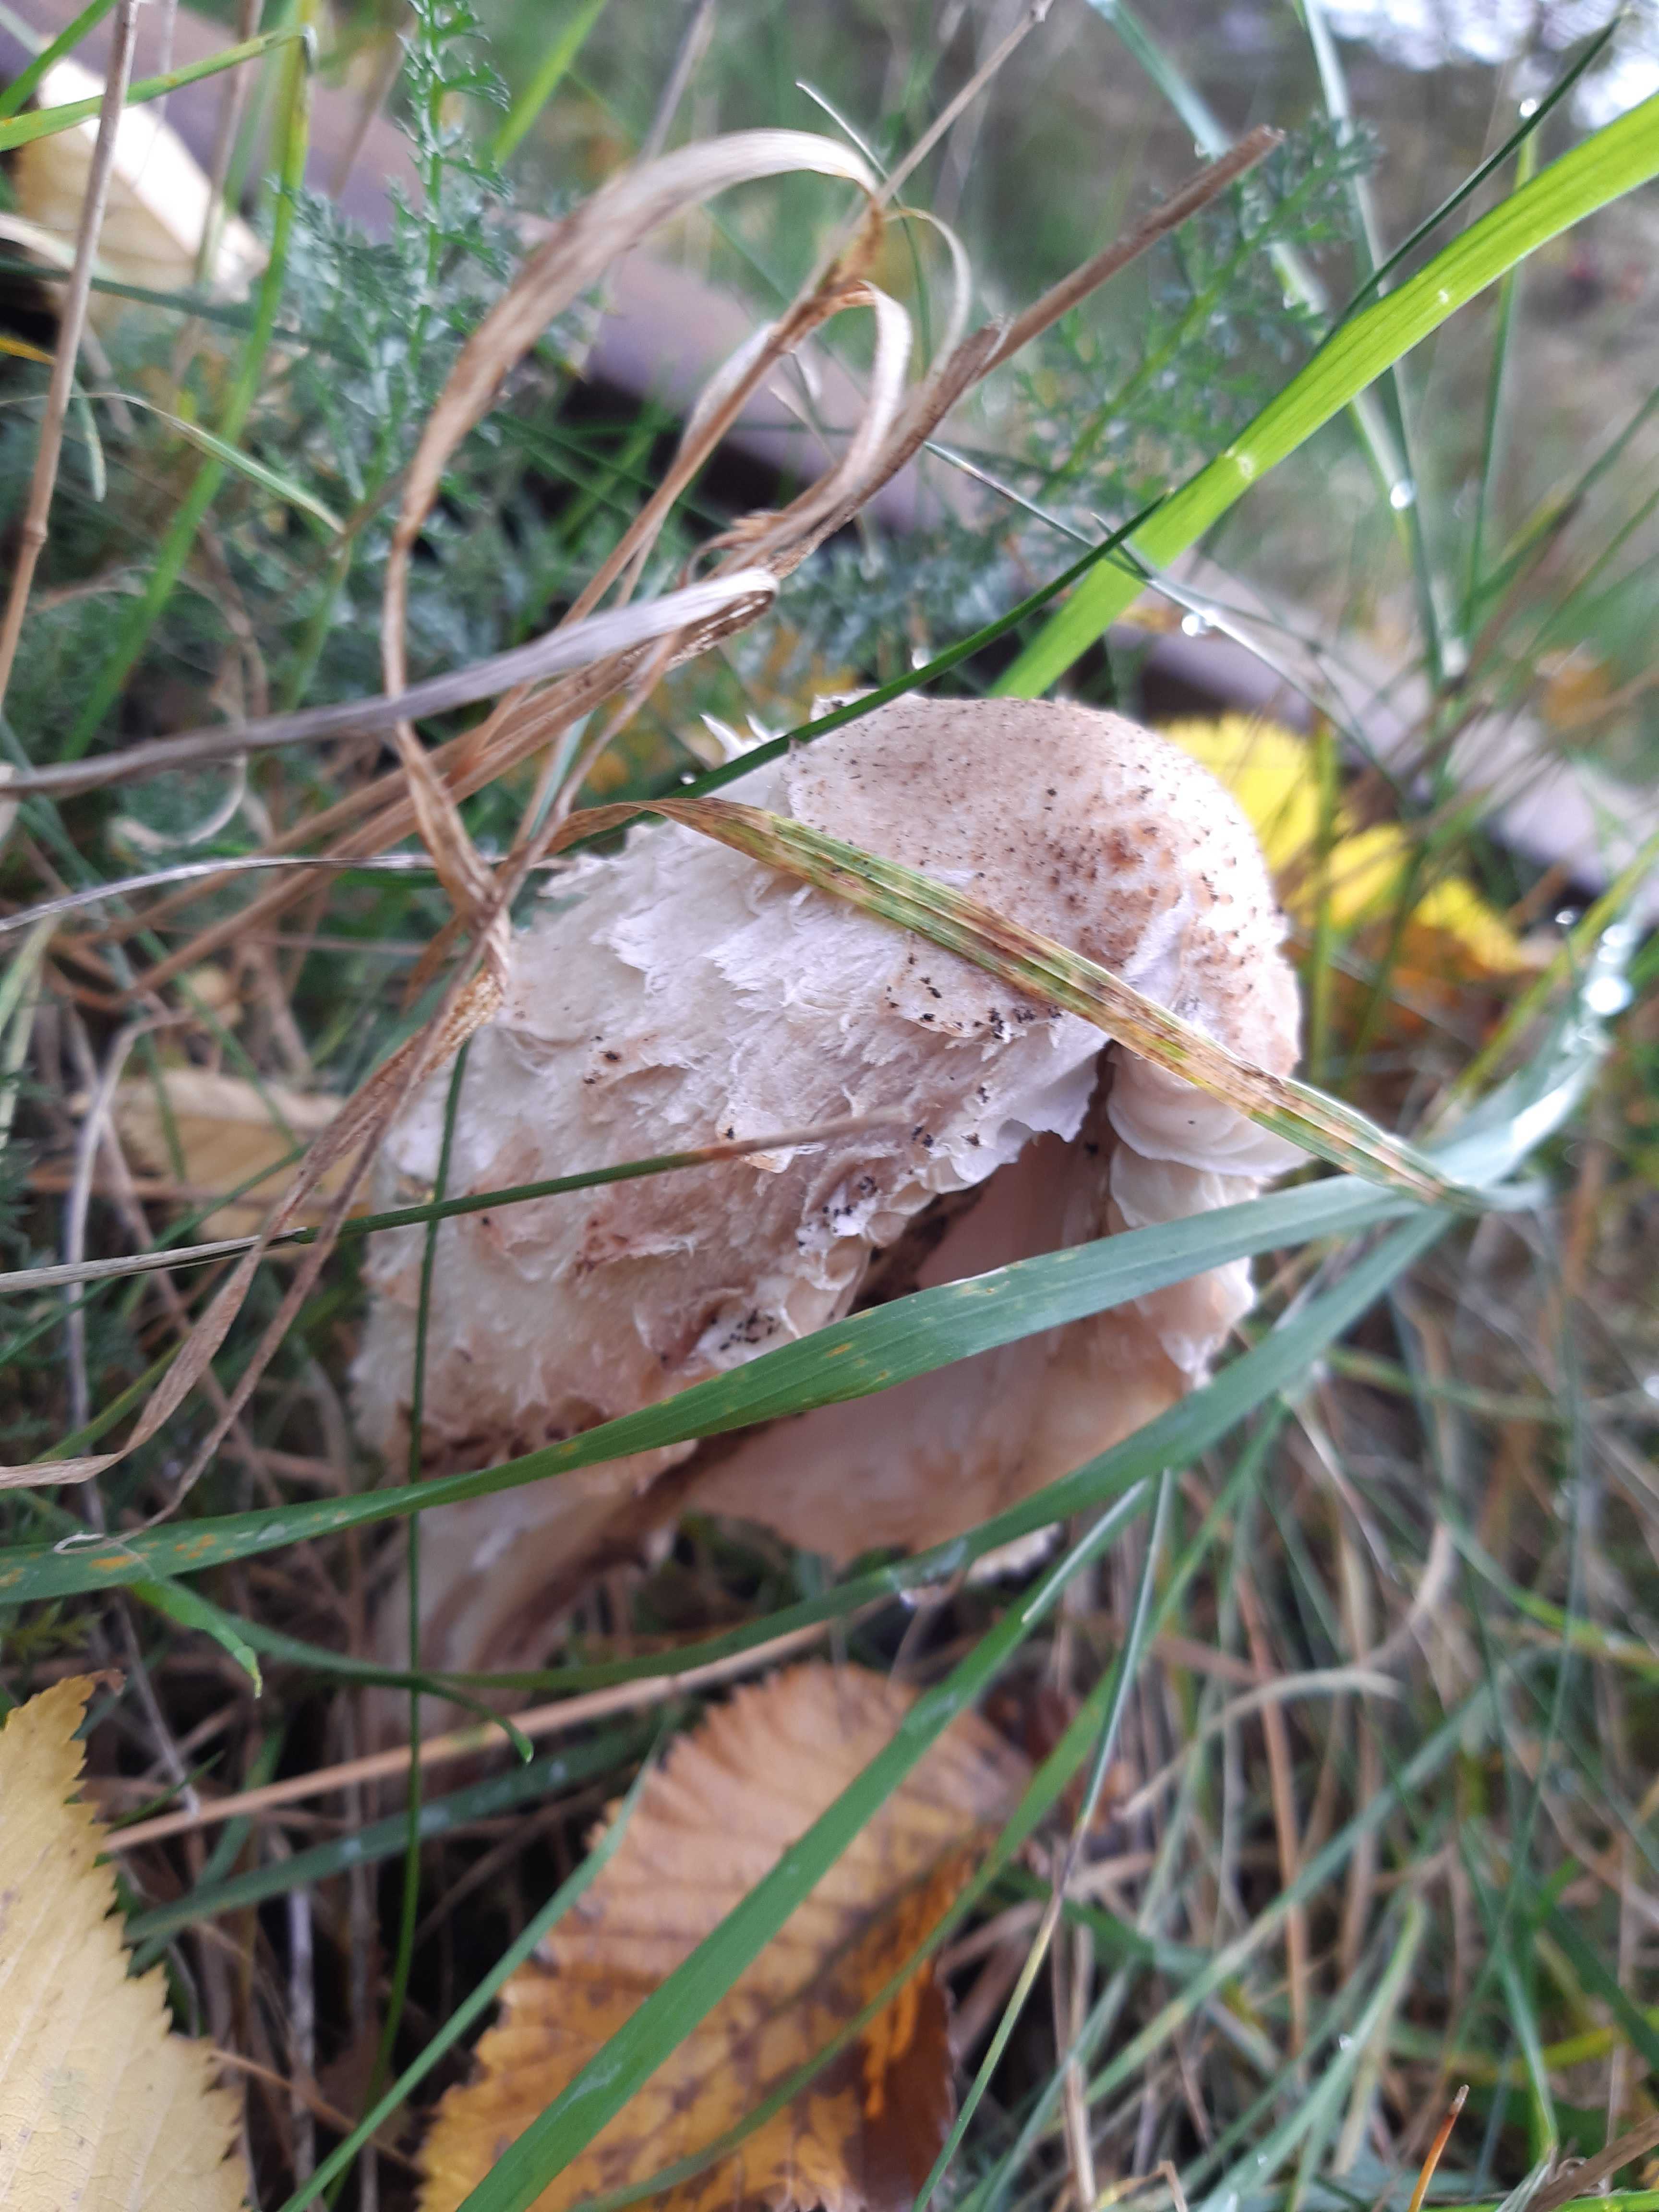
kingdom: Fungi
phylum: Basidiomycota
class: Agaricomycetes
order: Agaricales
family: Agaricaceae
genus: Coprinus
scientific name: Coprinus comatus
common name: stor parykhat
